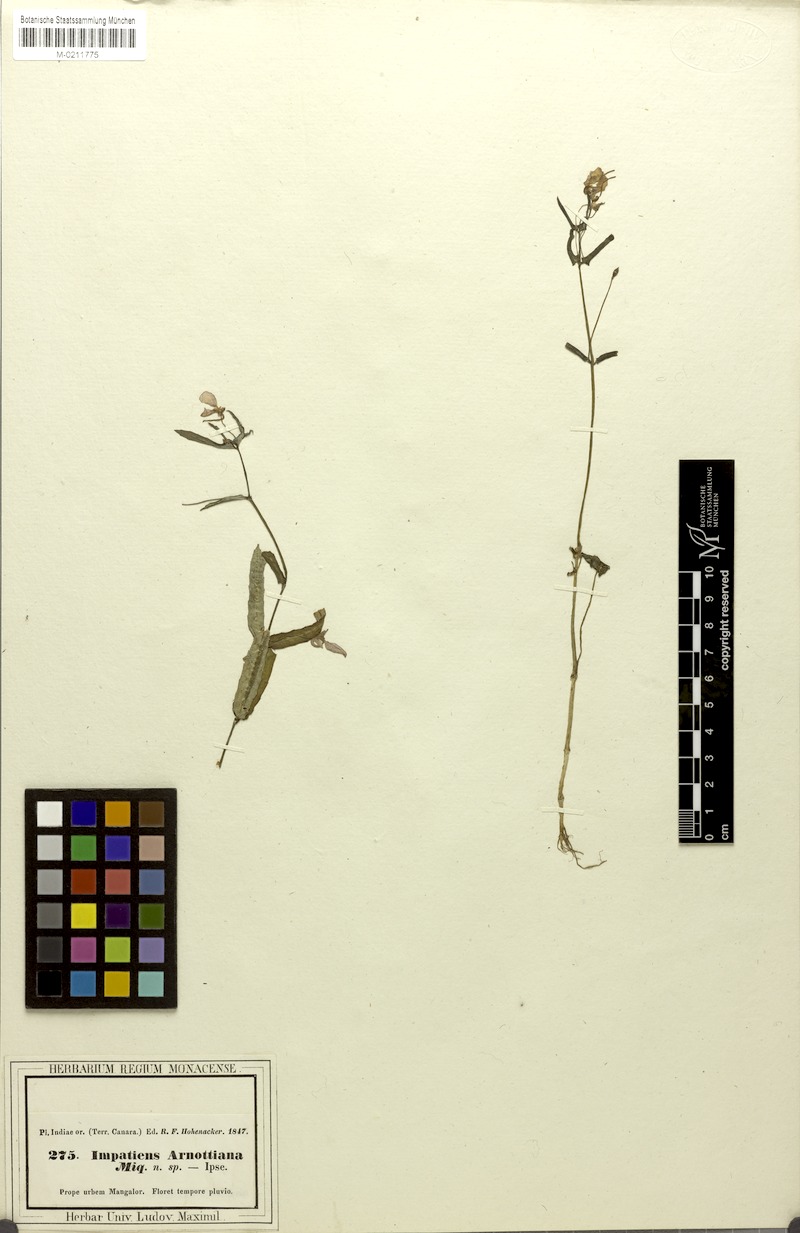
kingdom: Plantae
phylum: Tracheophyta
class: Magnoliopsida
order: Ericales
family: Balsaminaceae
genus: Impatiens
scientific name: Impatiens diversifolia
